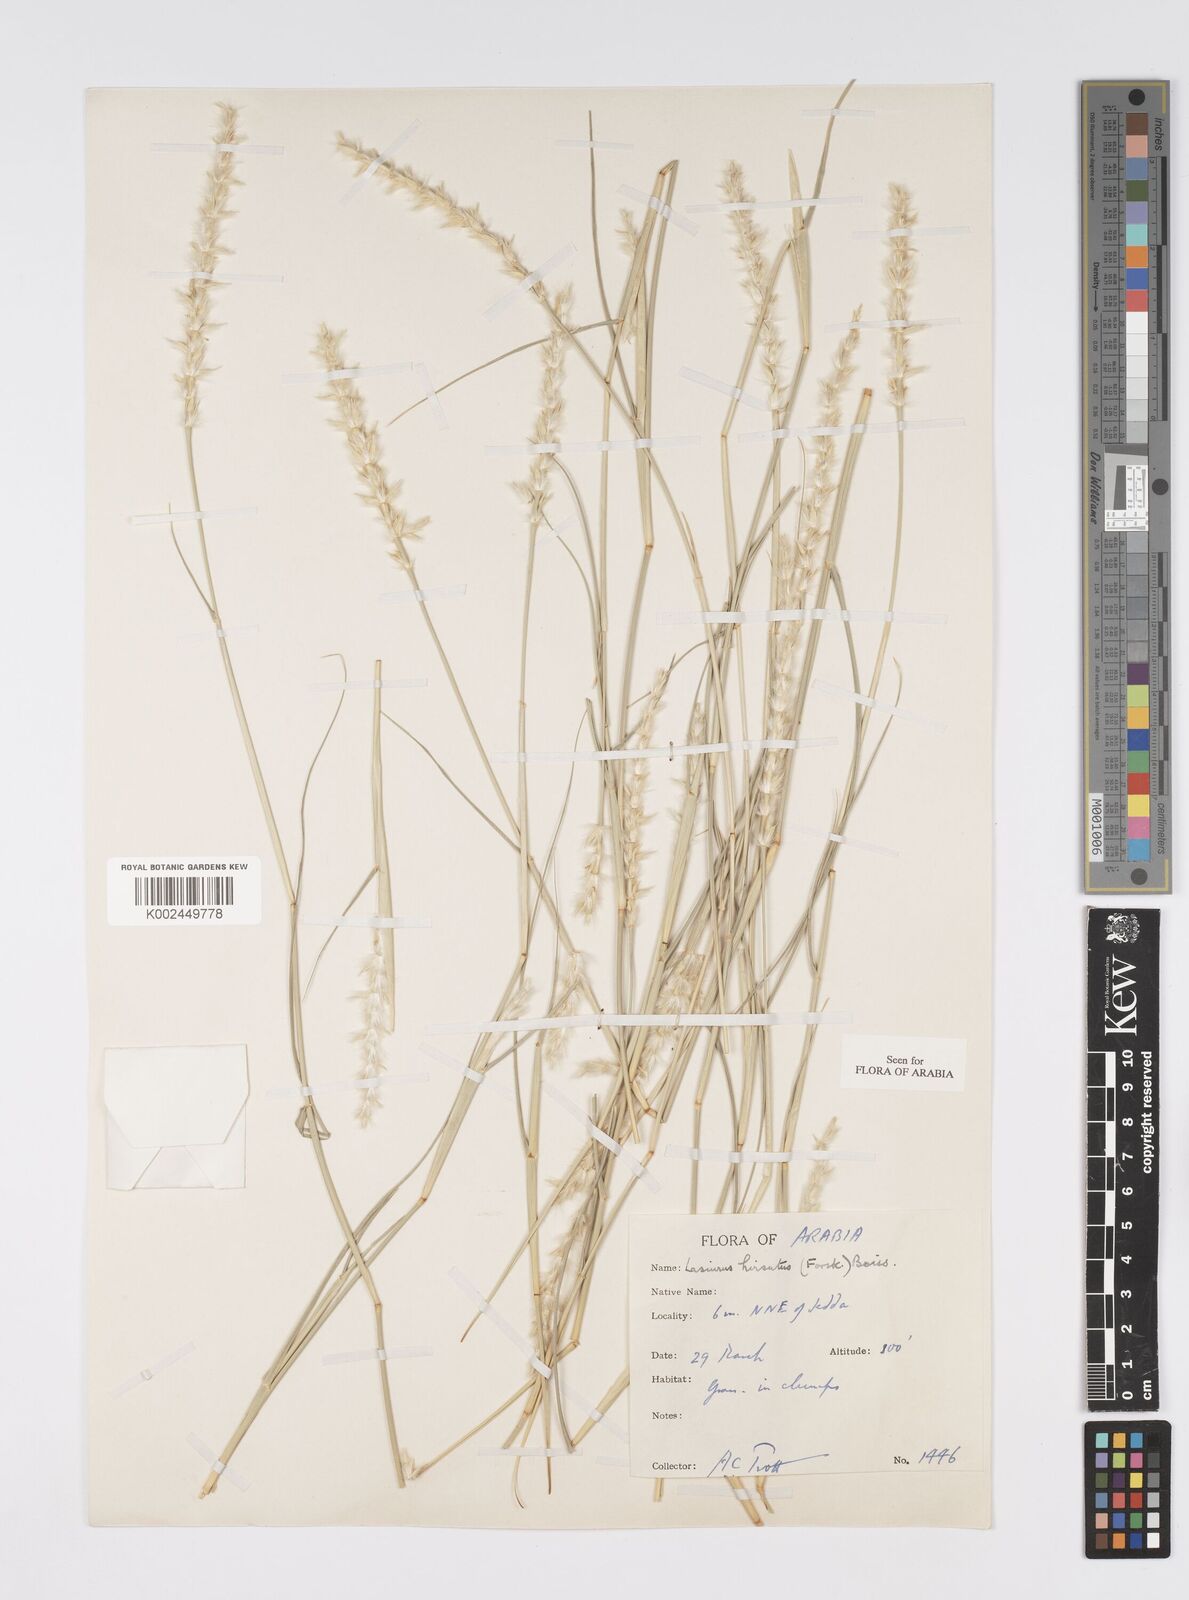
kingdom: Plantae
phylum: Tracheophyta
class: Liliopsida
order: Poales
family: Poaceae
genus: Lasiurus
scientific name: Lasiurus scindicus
